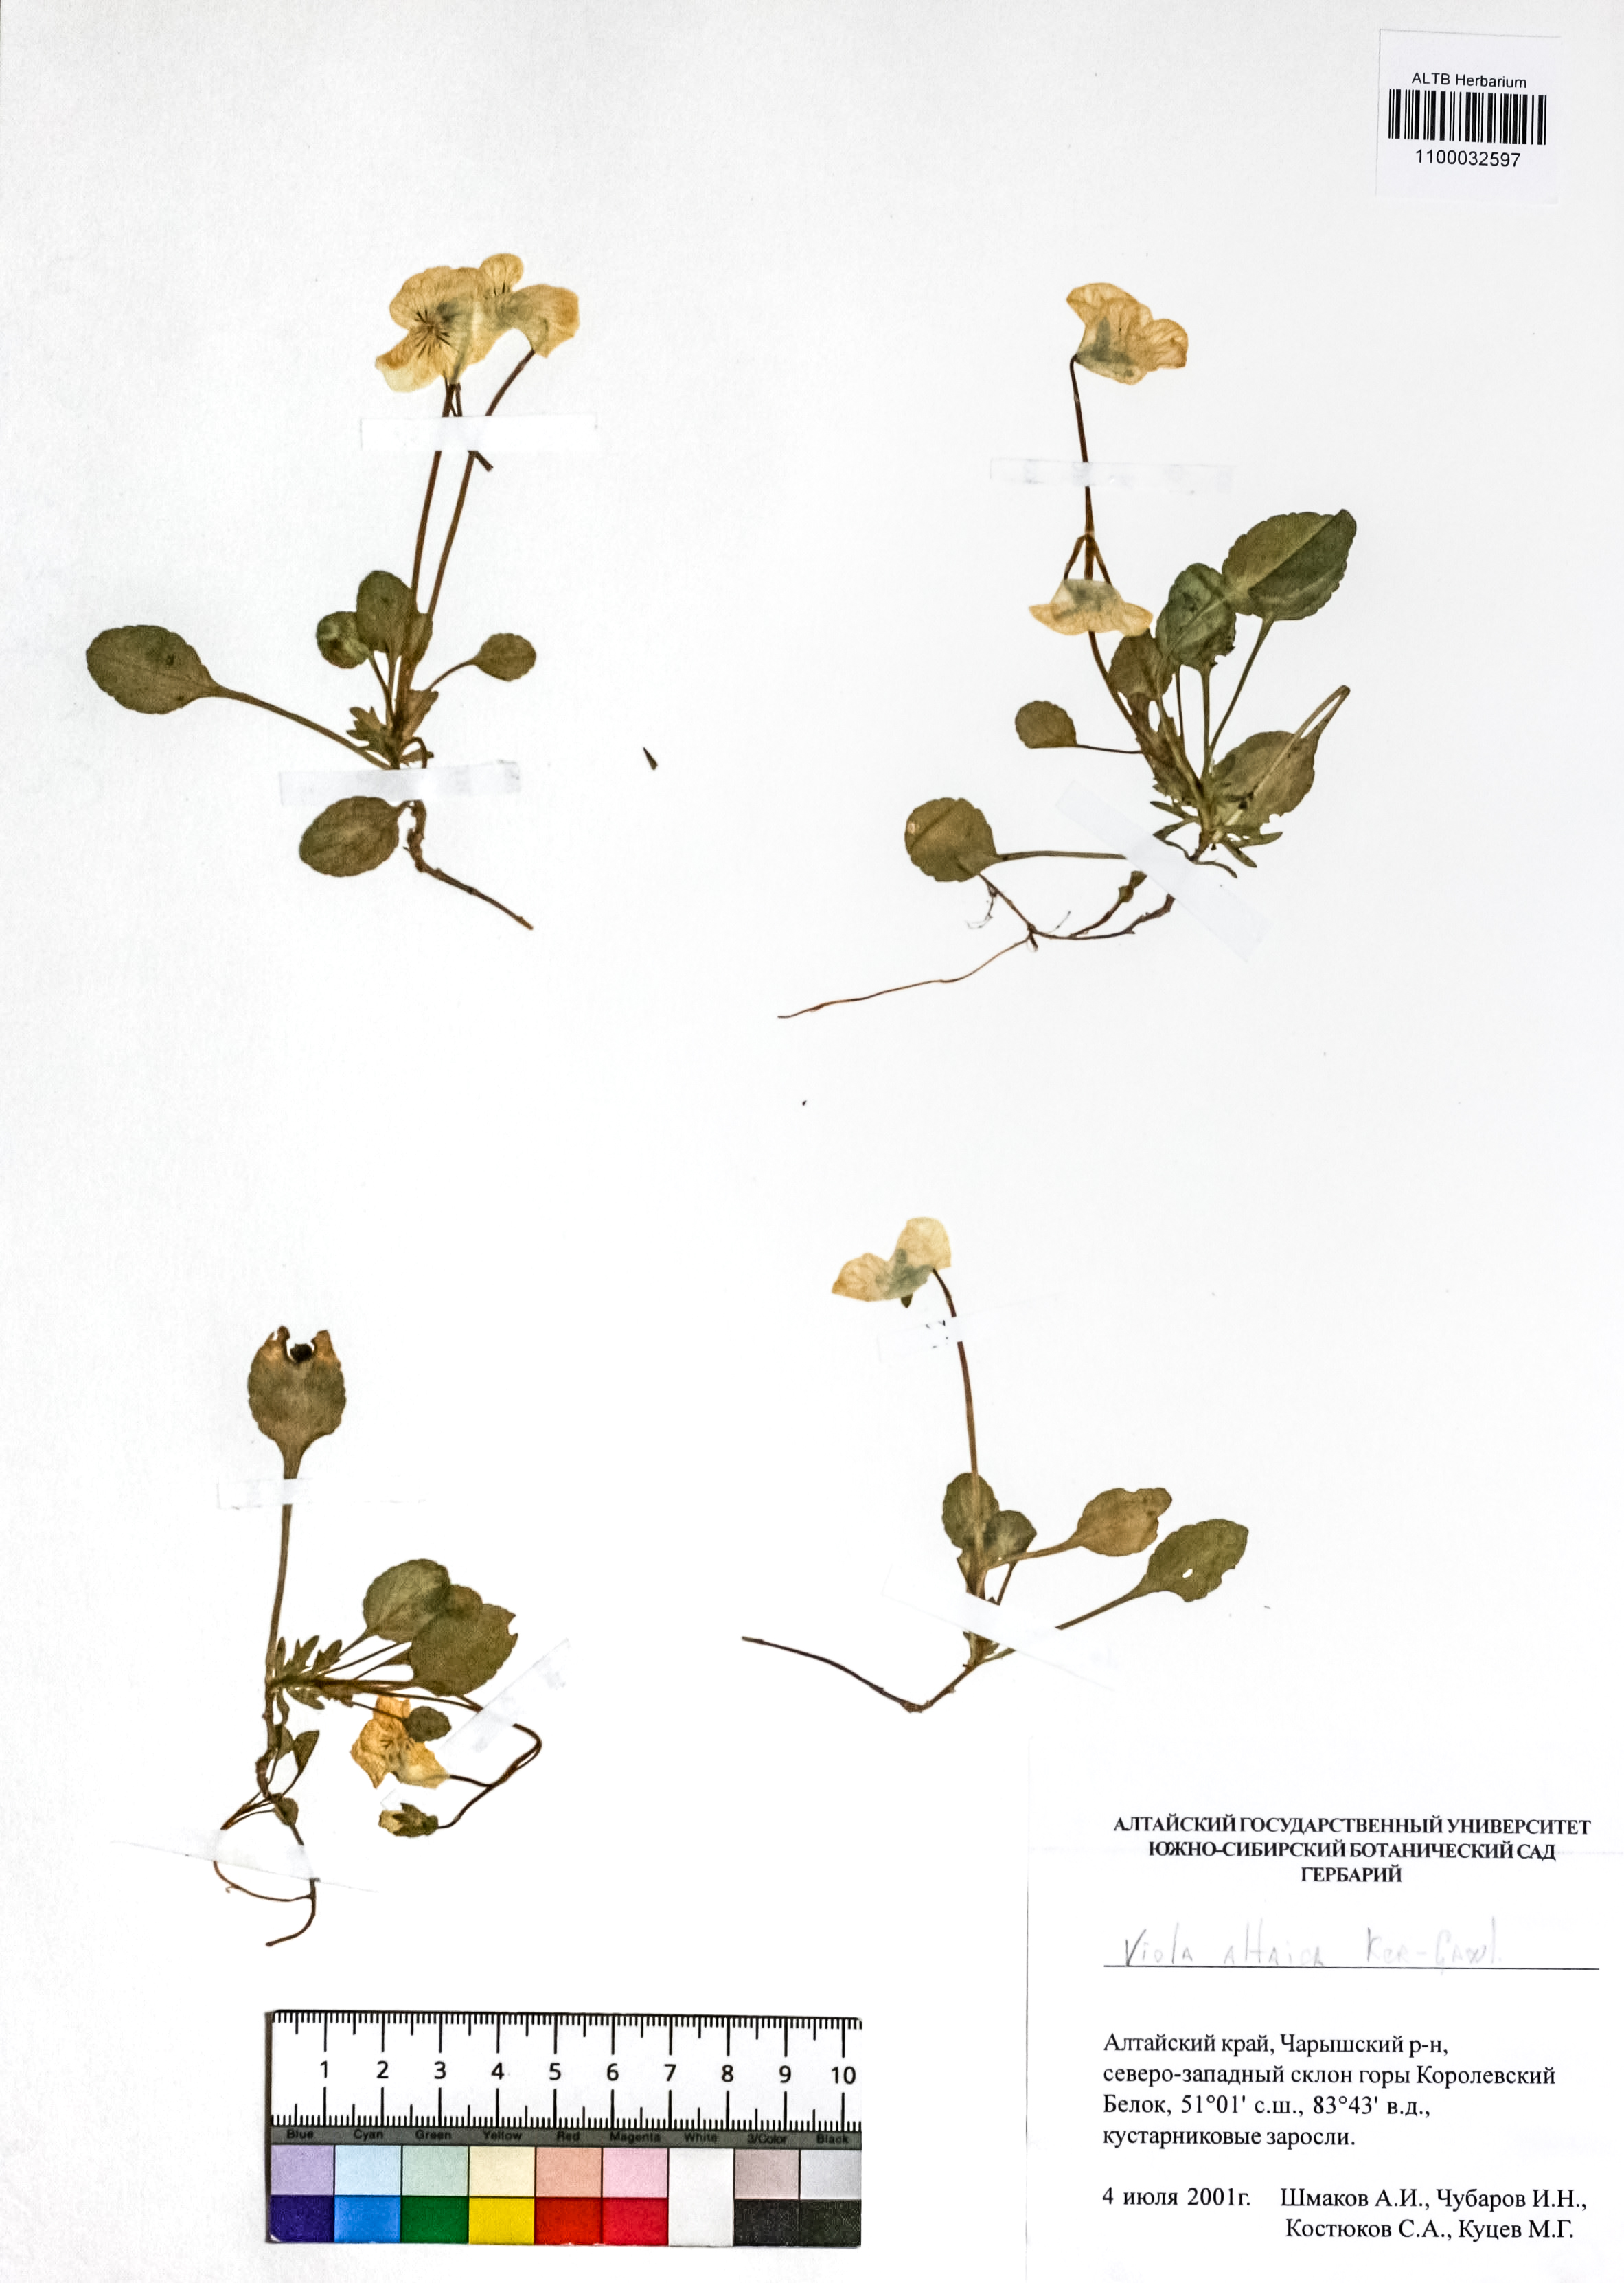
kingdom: Plantae
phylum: Tracheophyta
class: Magnoliopsida
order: Malpighiales
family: Violaceae
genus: Viola
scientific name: Viola altaica
